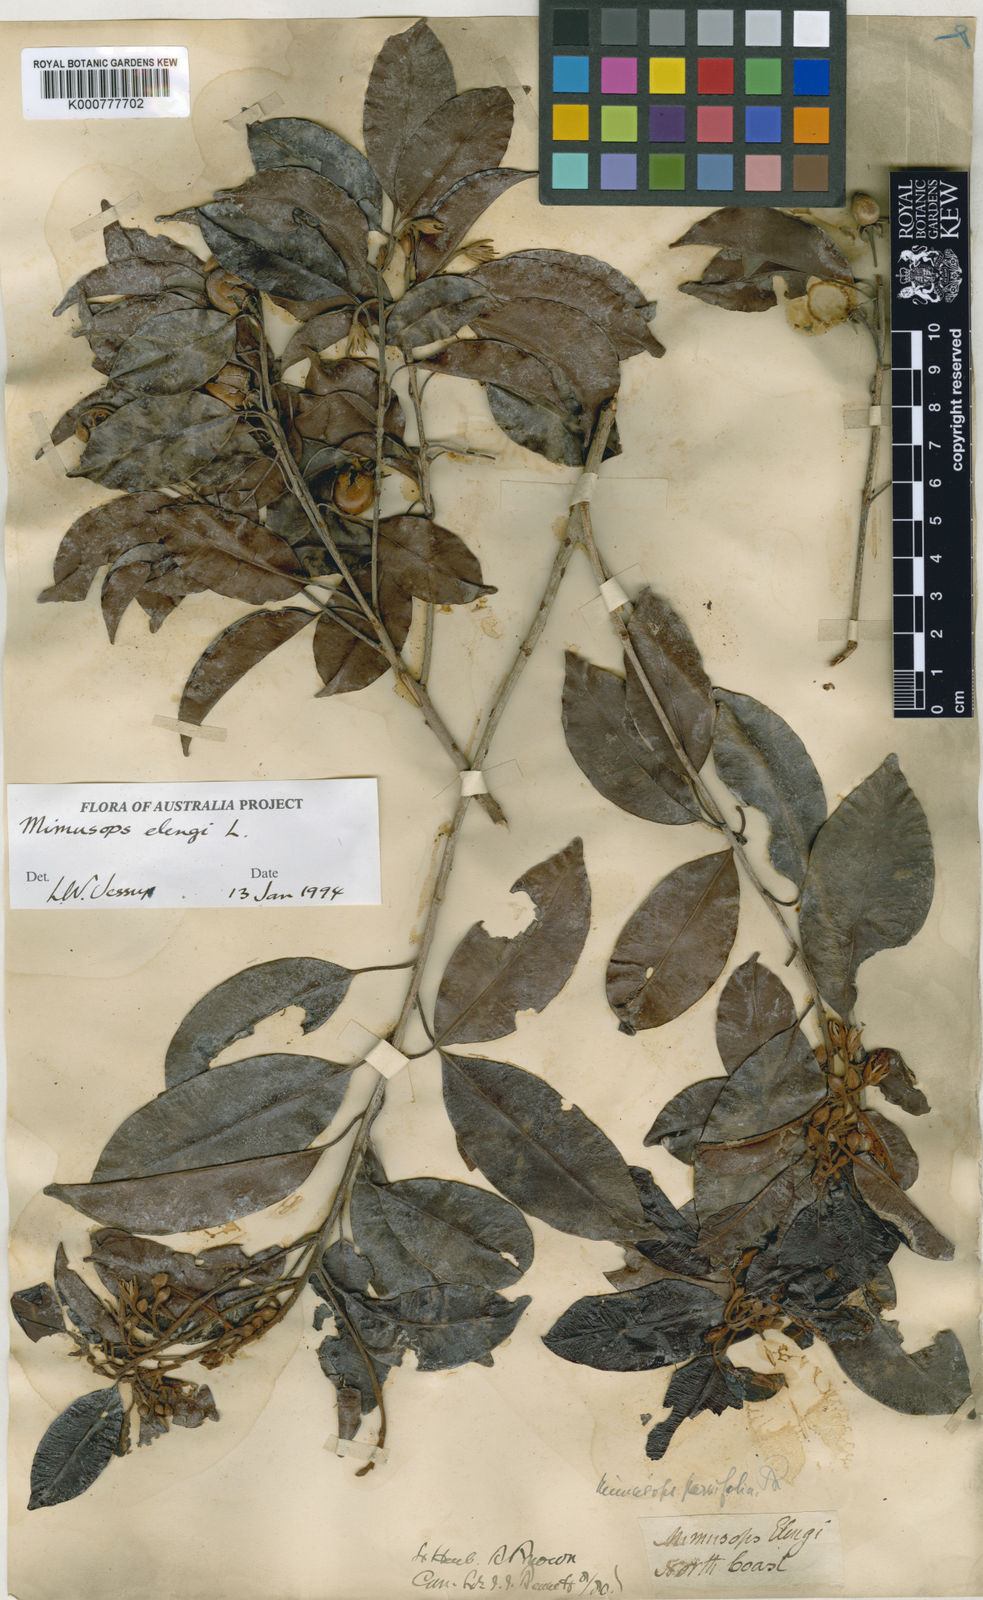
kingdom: Plantae
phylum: Tracheophyta
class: Magnoliopsida
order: Ericales
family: Sapotaceae
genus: Mimusops
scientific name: Mimusops elengi
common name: Spanish cherry
